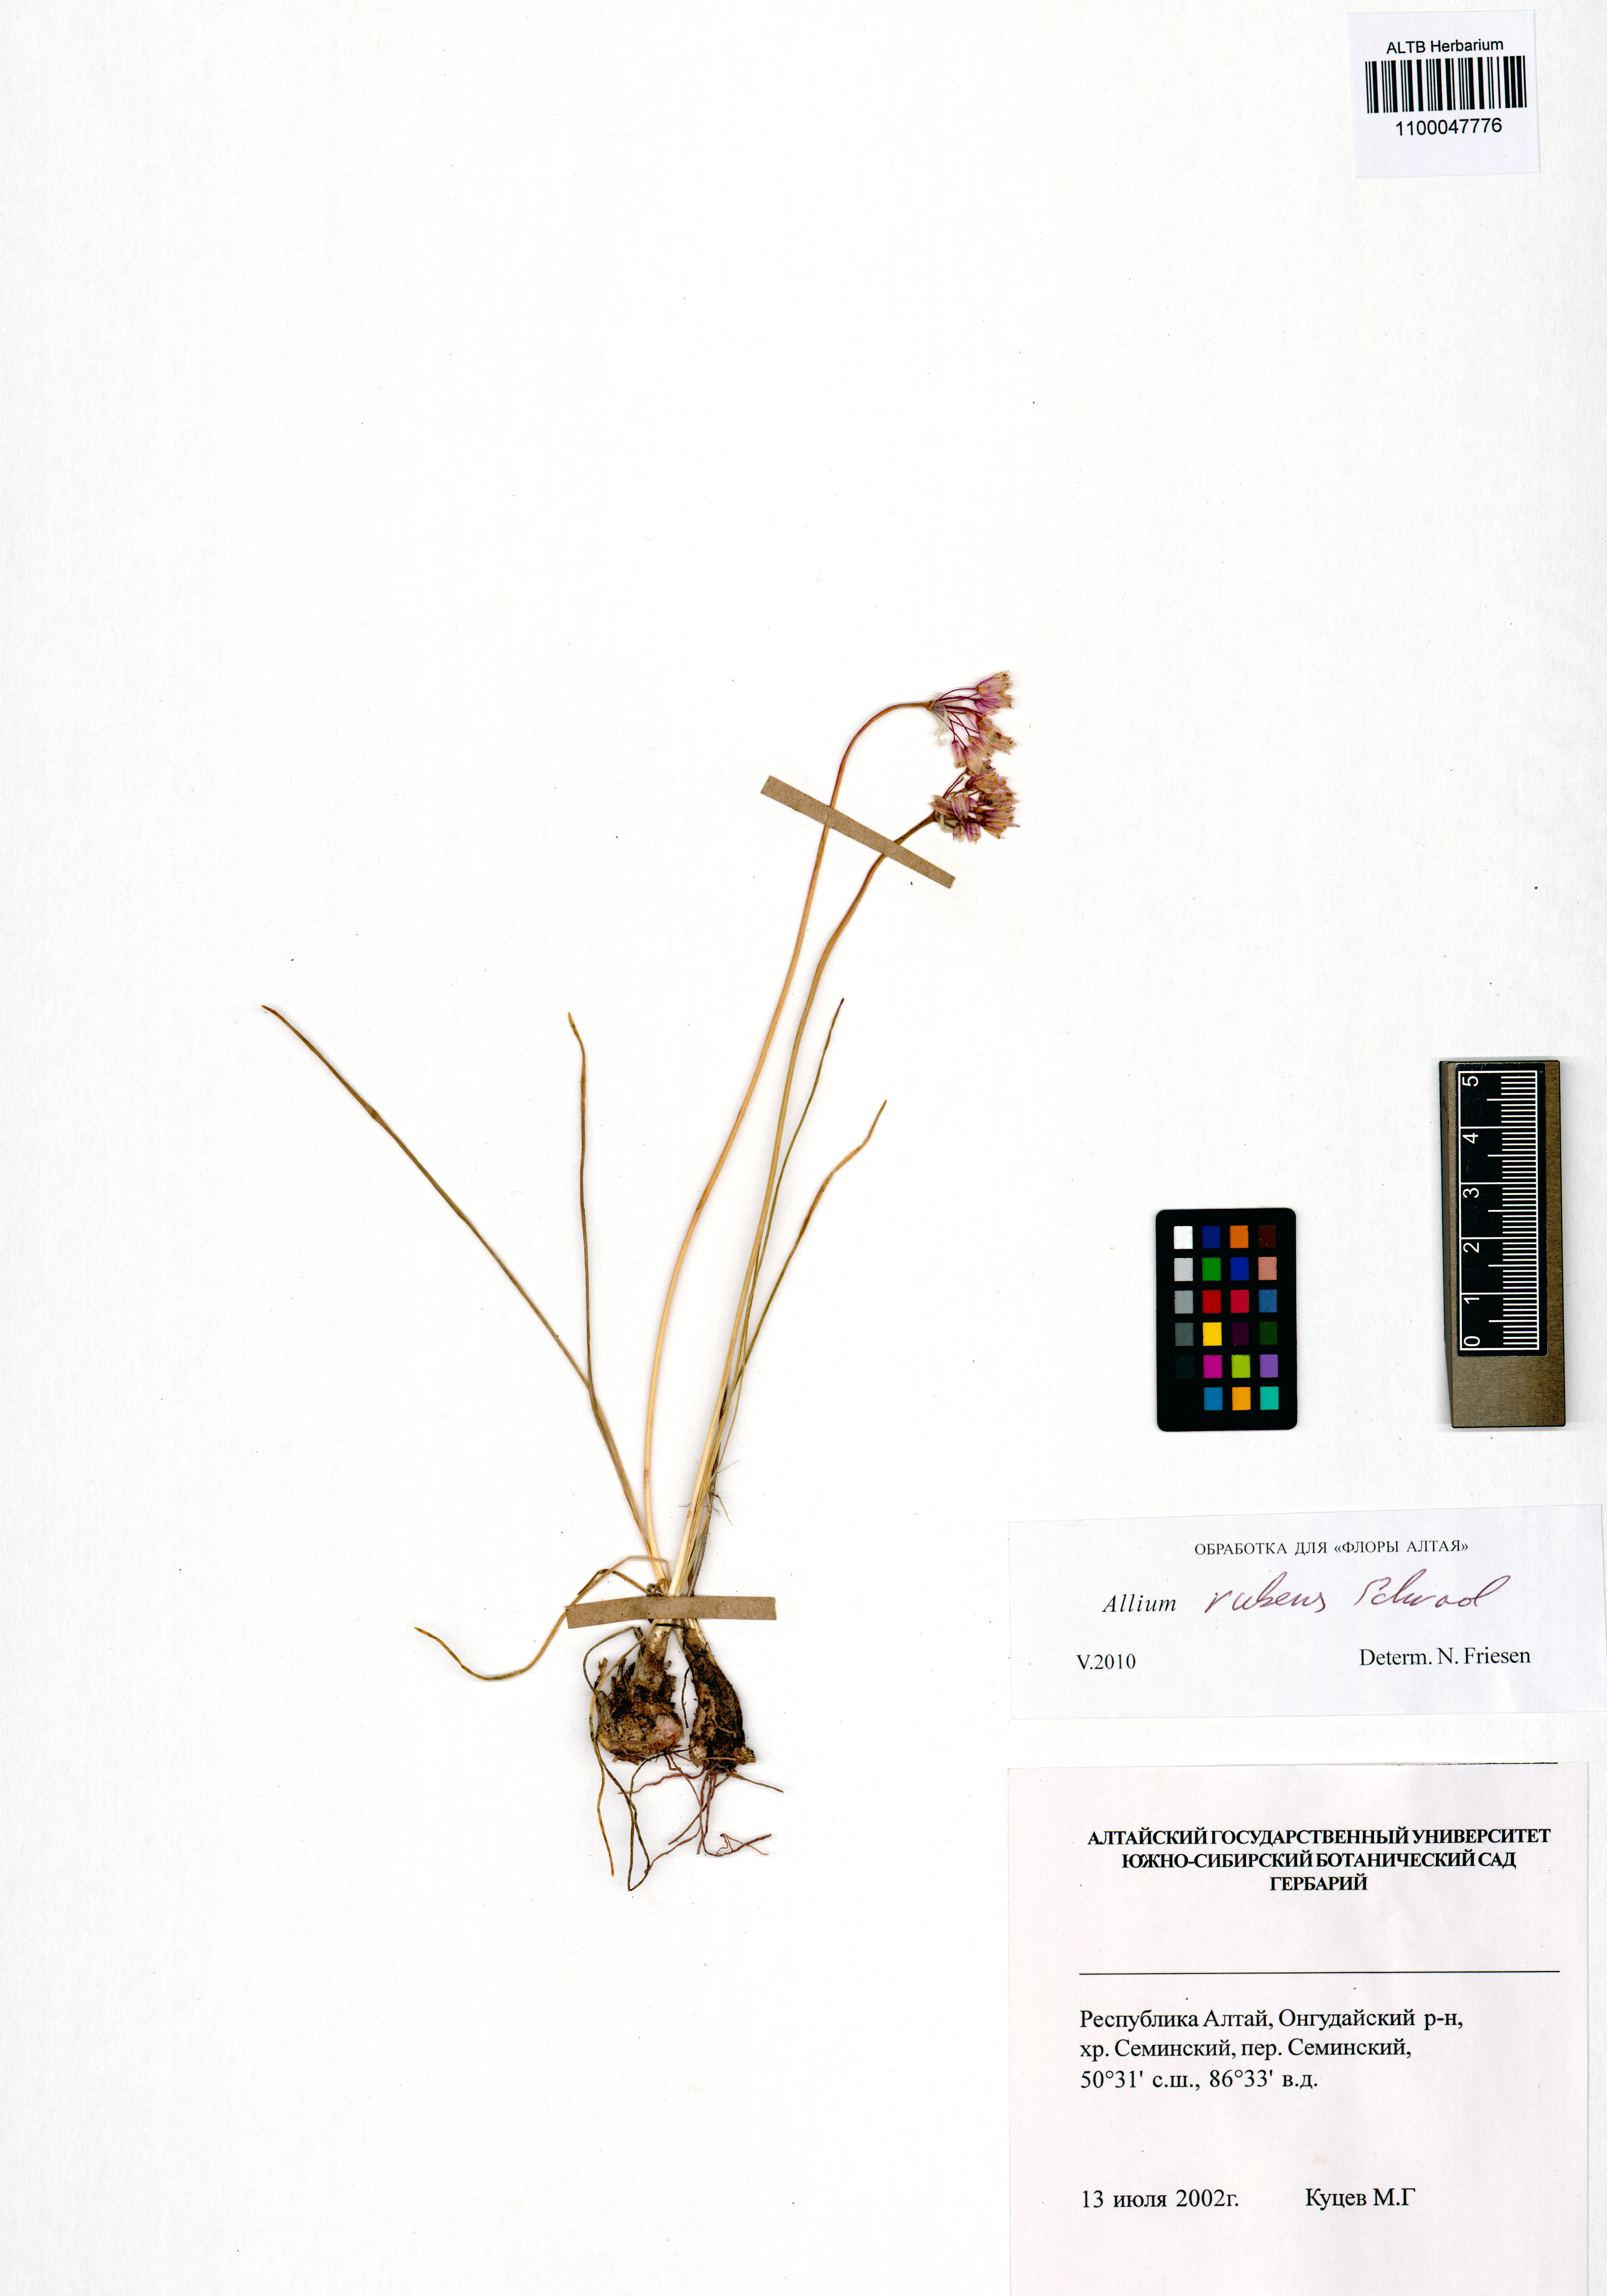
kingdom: Plantae
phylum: Tracheophyta
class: Liliopsida
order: Asparagales
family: Amaryllidaceae
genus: Allium
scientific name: Allium rubens
